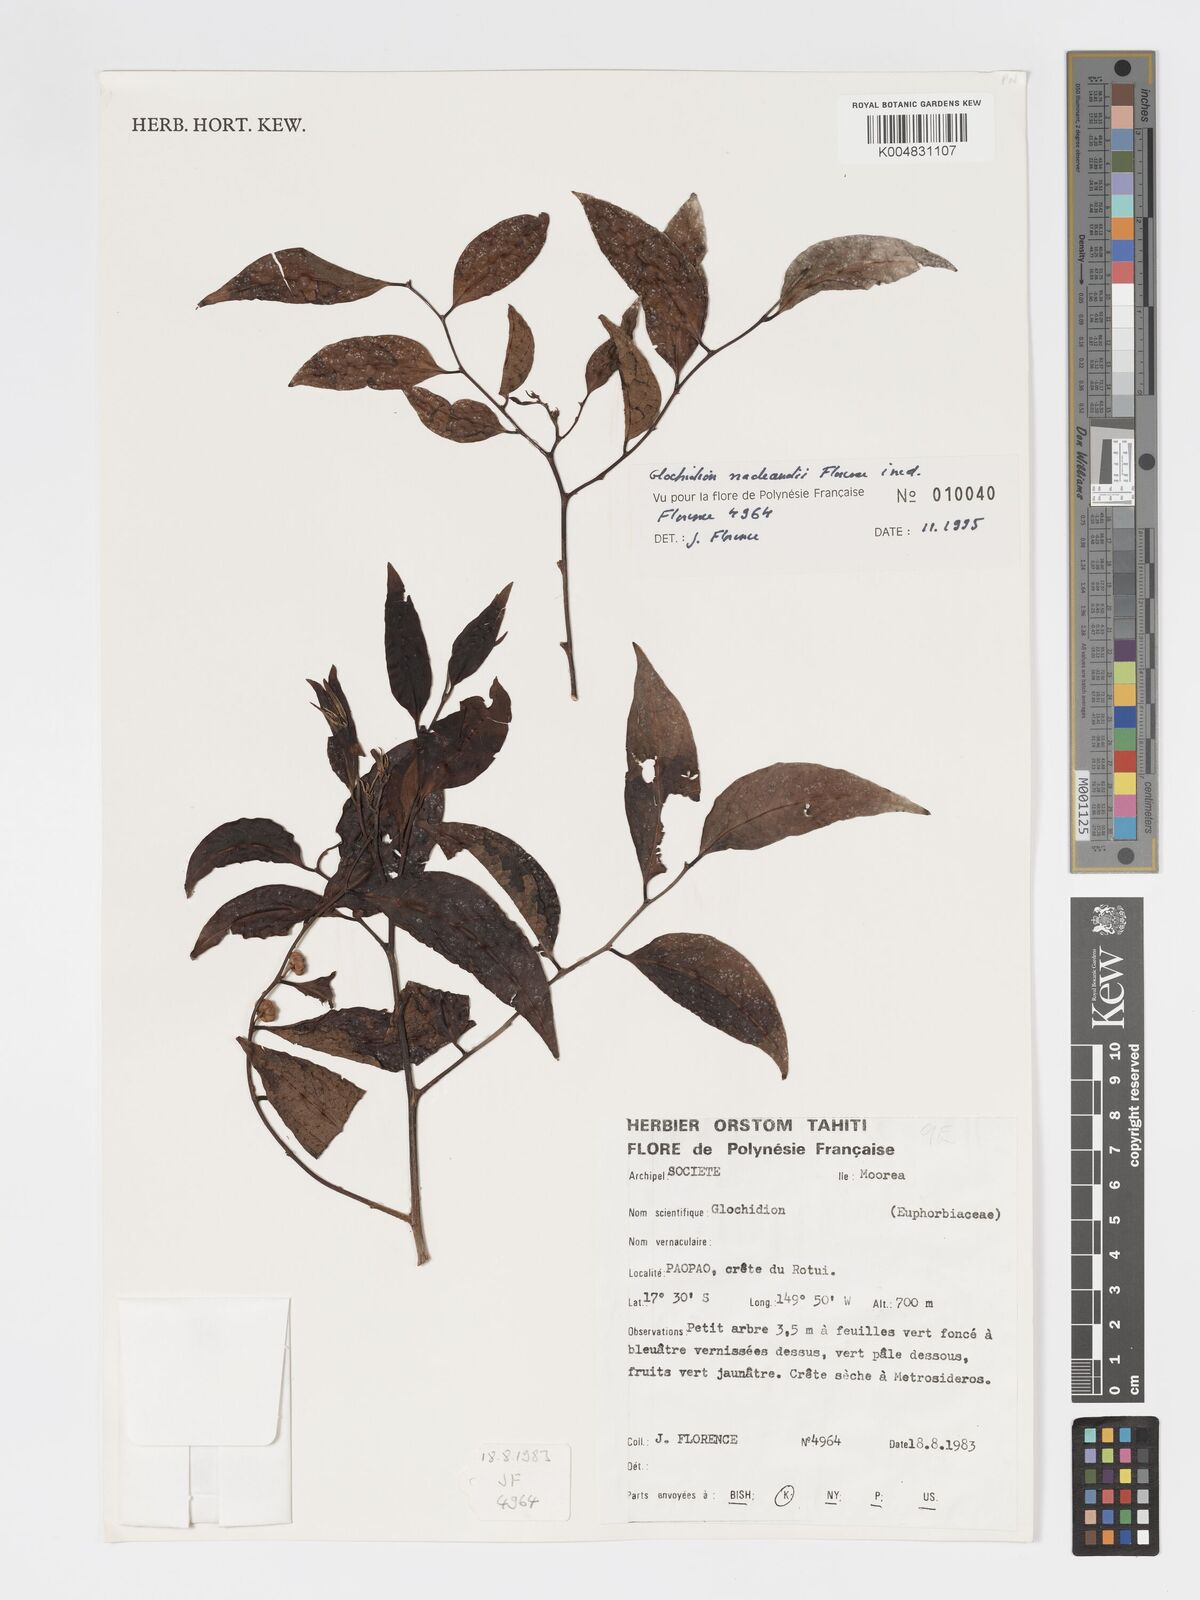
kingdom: Plantae
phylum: Tracheophyta
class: Magnoliopsida
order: Malpighiales
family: Phyllanthaceae
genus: Glochidion
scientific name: Glochidion nadeaudii
